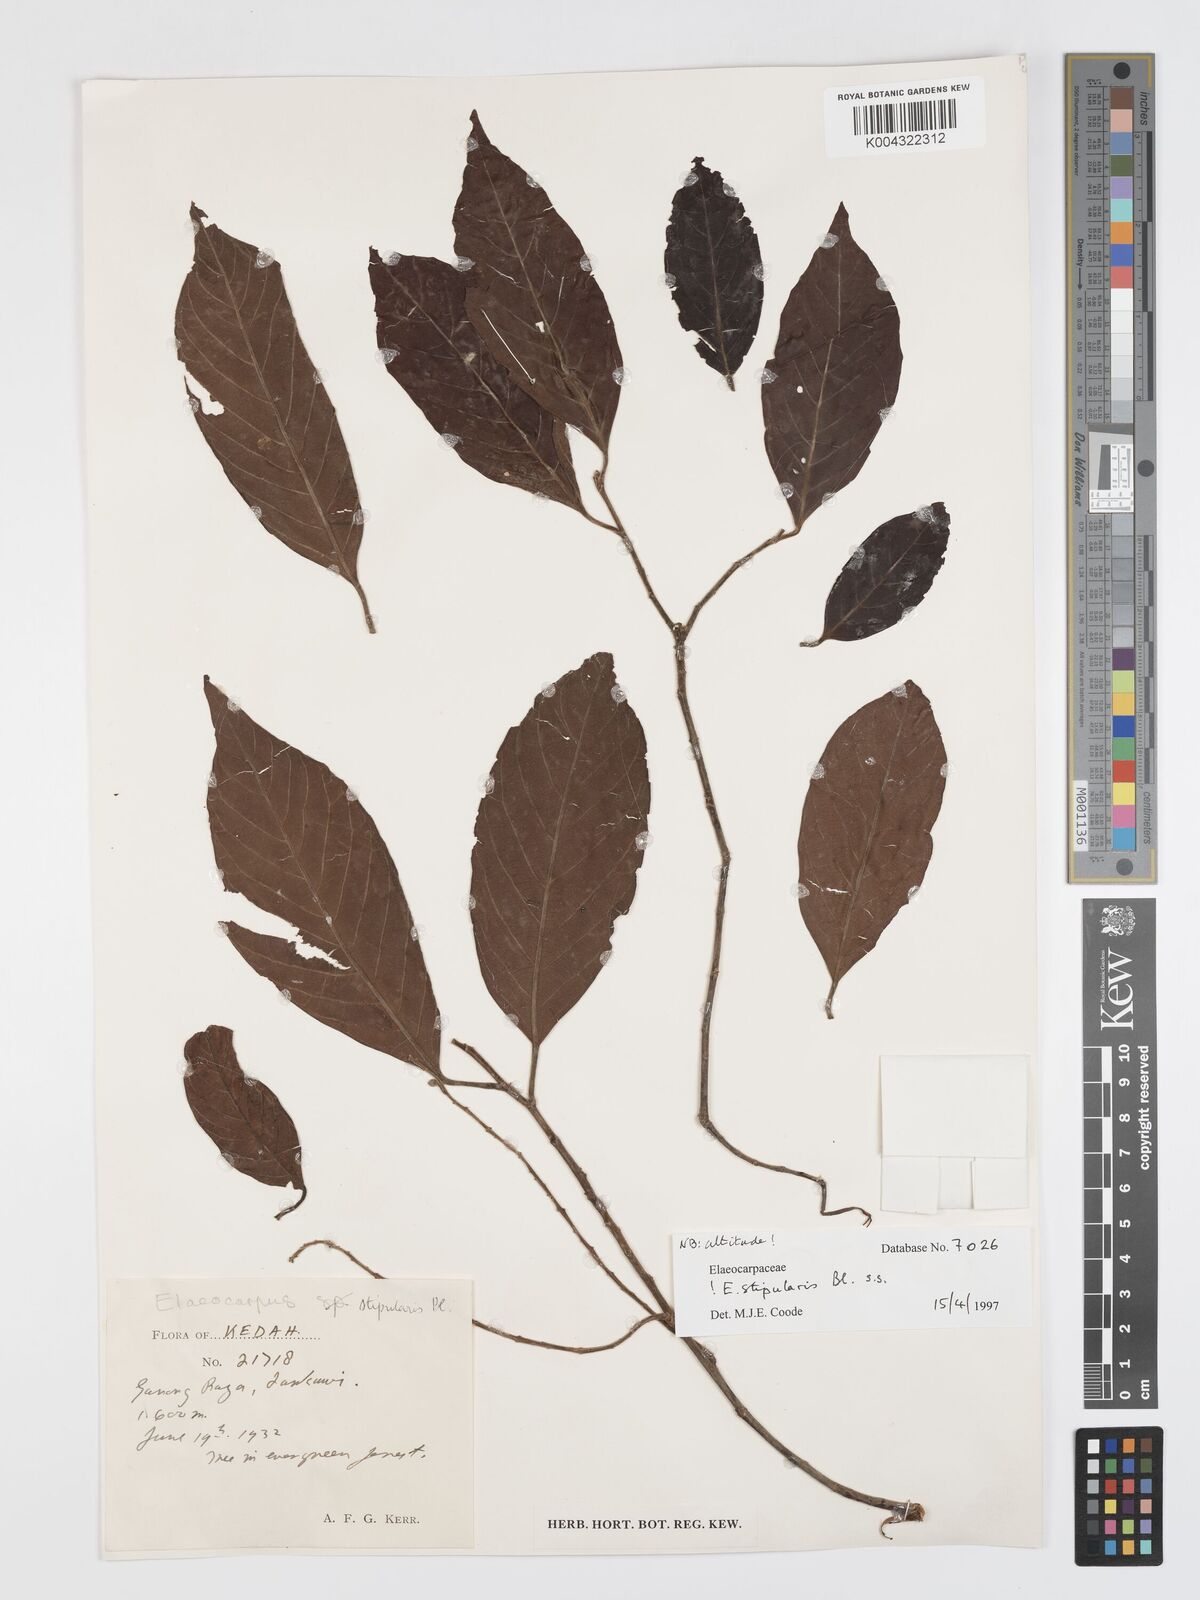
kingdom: Plantae
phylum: Tracheophyta
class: Magnoliopsida
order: Oxalidales
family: Elaeocarpaceae
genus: Elaeocarpus
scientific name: Elaeocarpus stipularis
